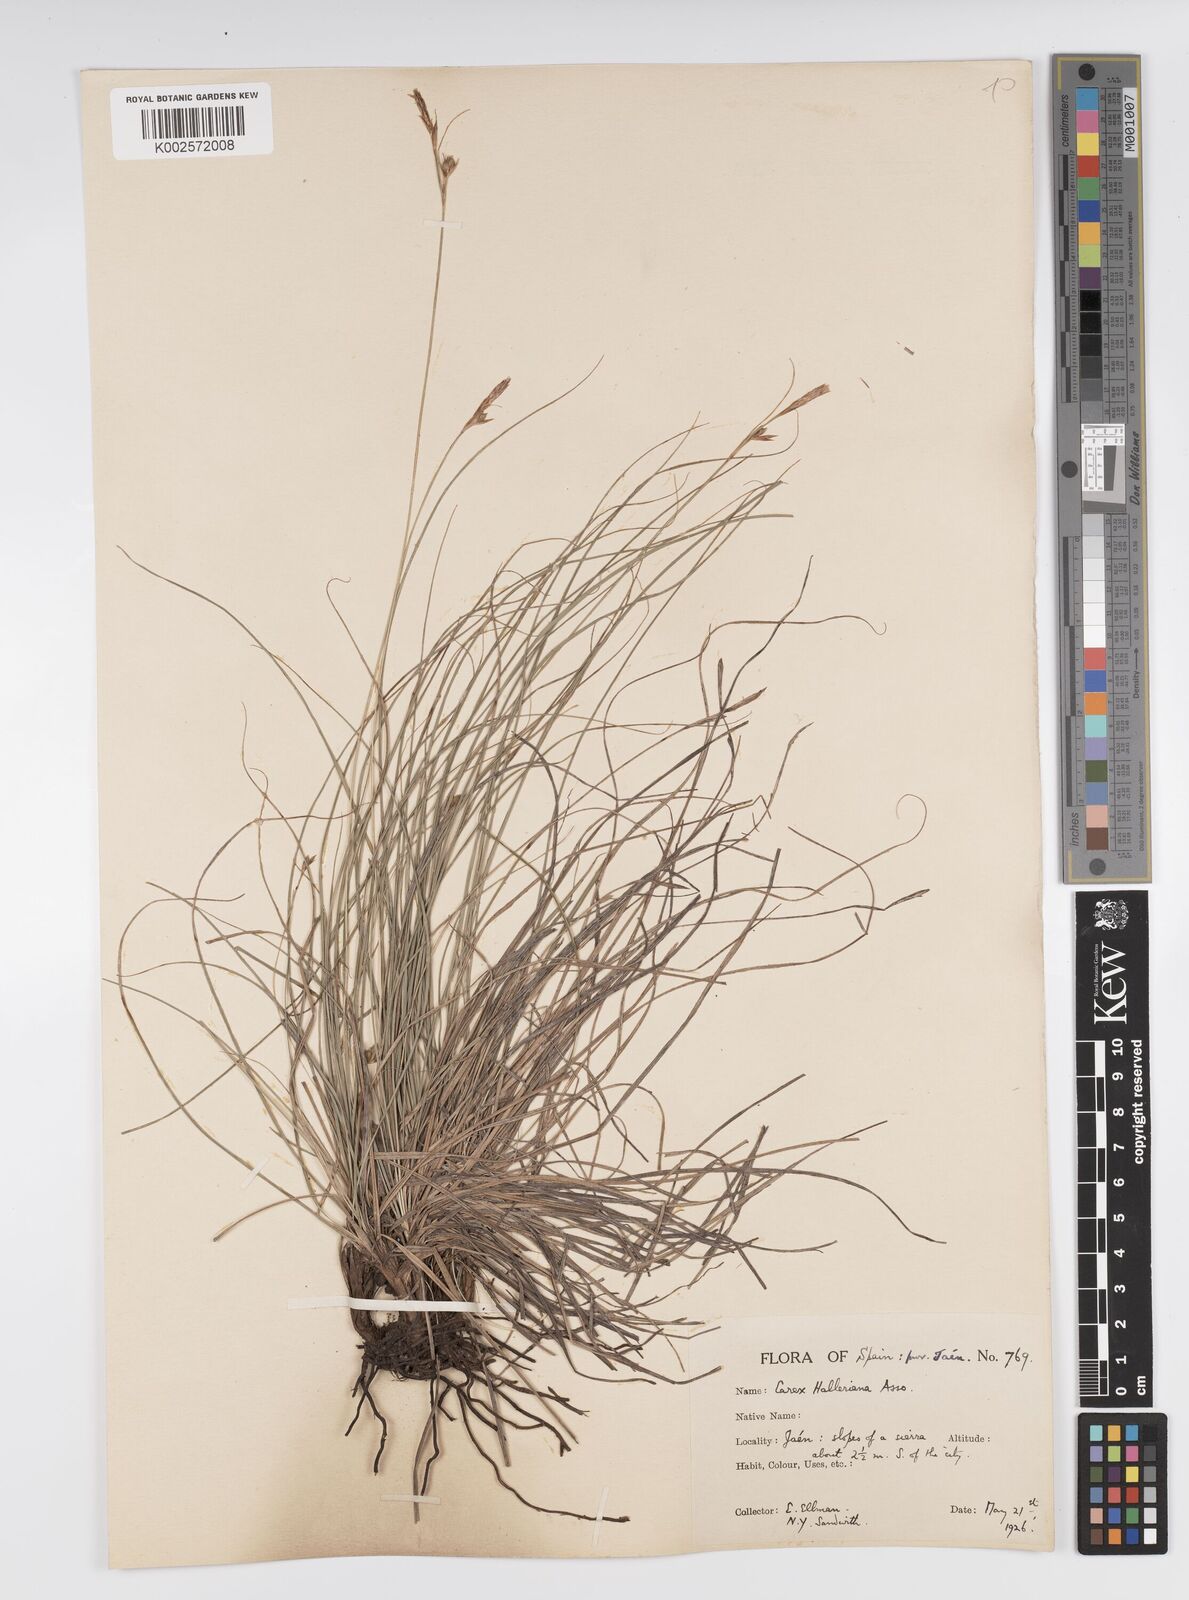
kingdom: Plantae
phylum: Tracheophyta
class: Liliopsida
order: Poales
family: Cyperaceae
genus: Carex
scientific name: Carex halleriana
